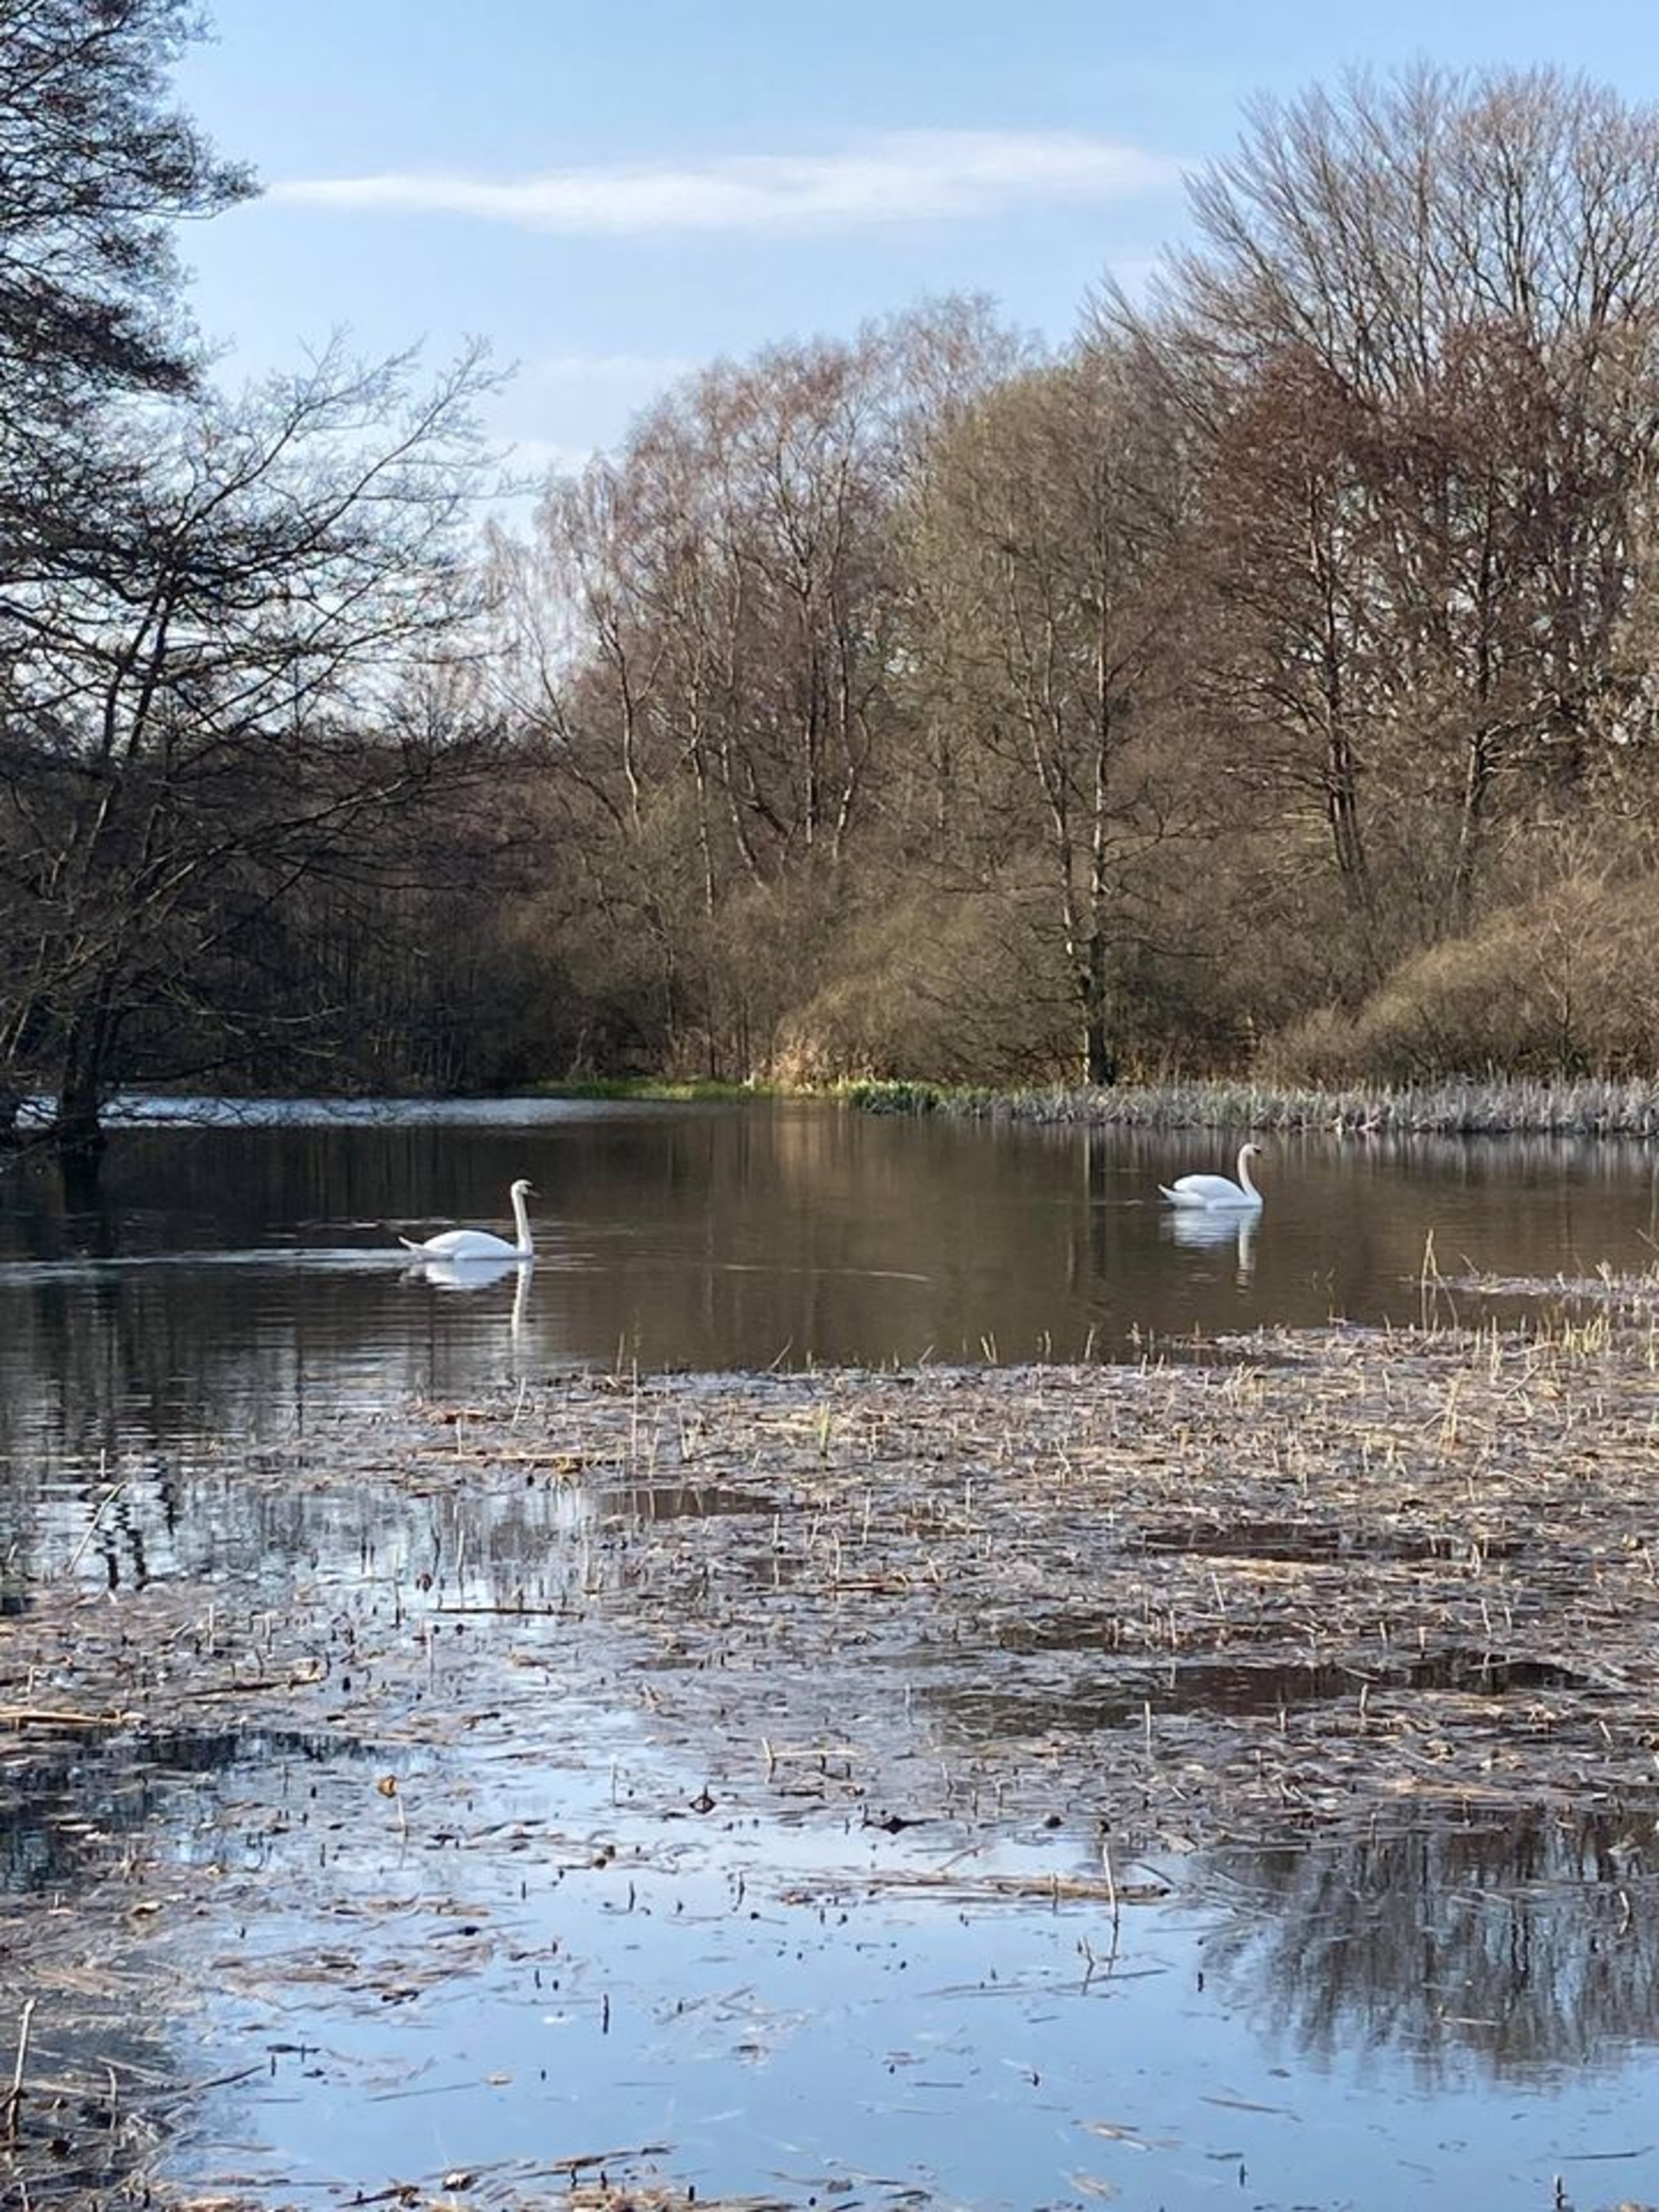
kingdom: Animalia
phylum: Chordata
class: Aves
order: Anseriformes
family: Anatidae
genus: Cygnus
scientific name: Cygnus olor
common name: Knopsvane
